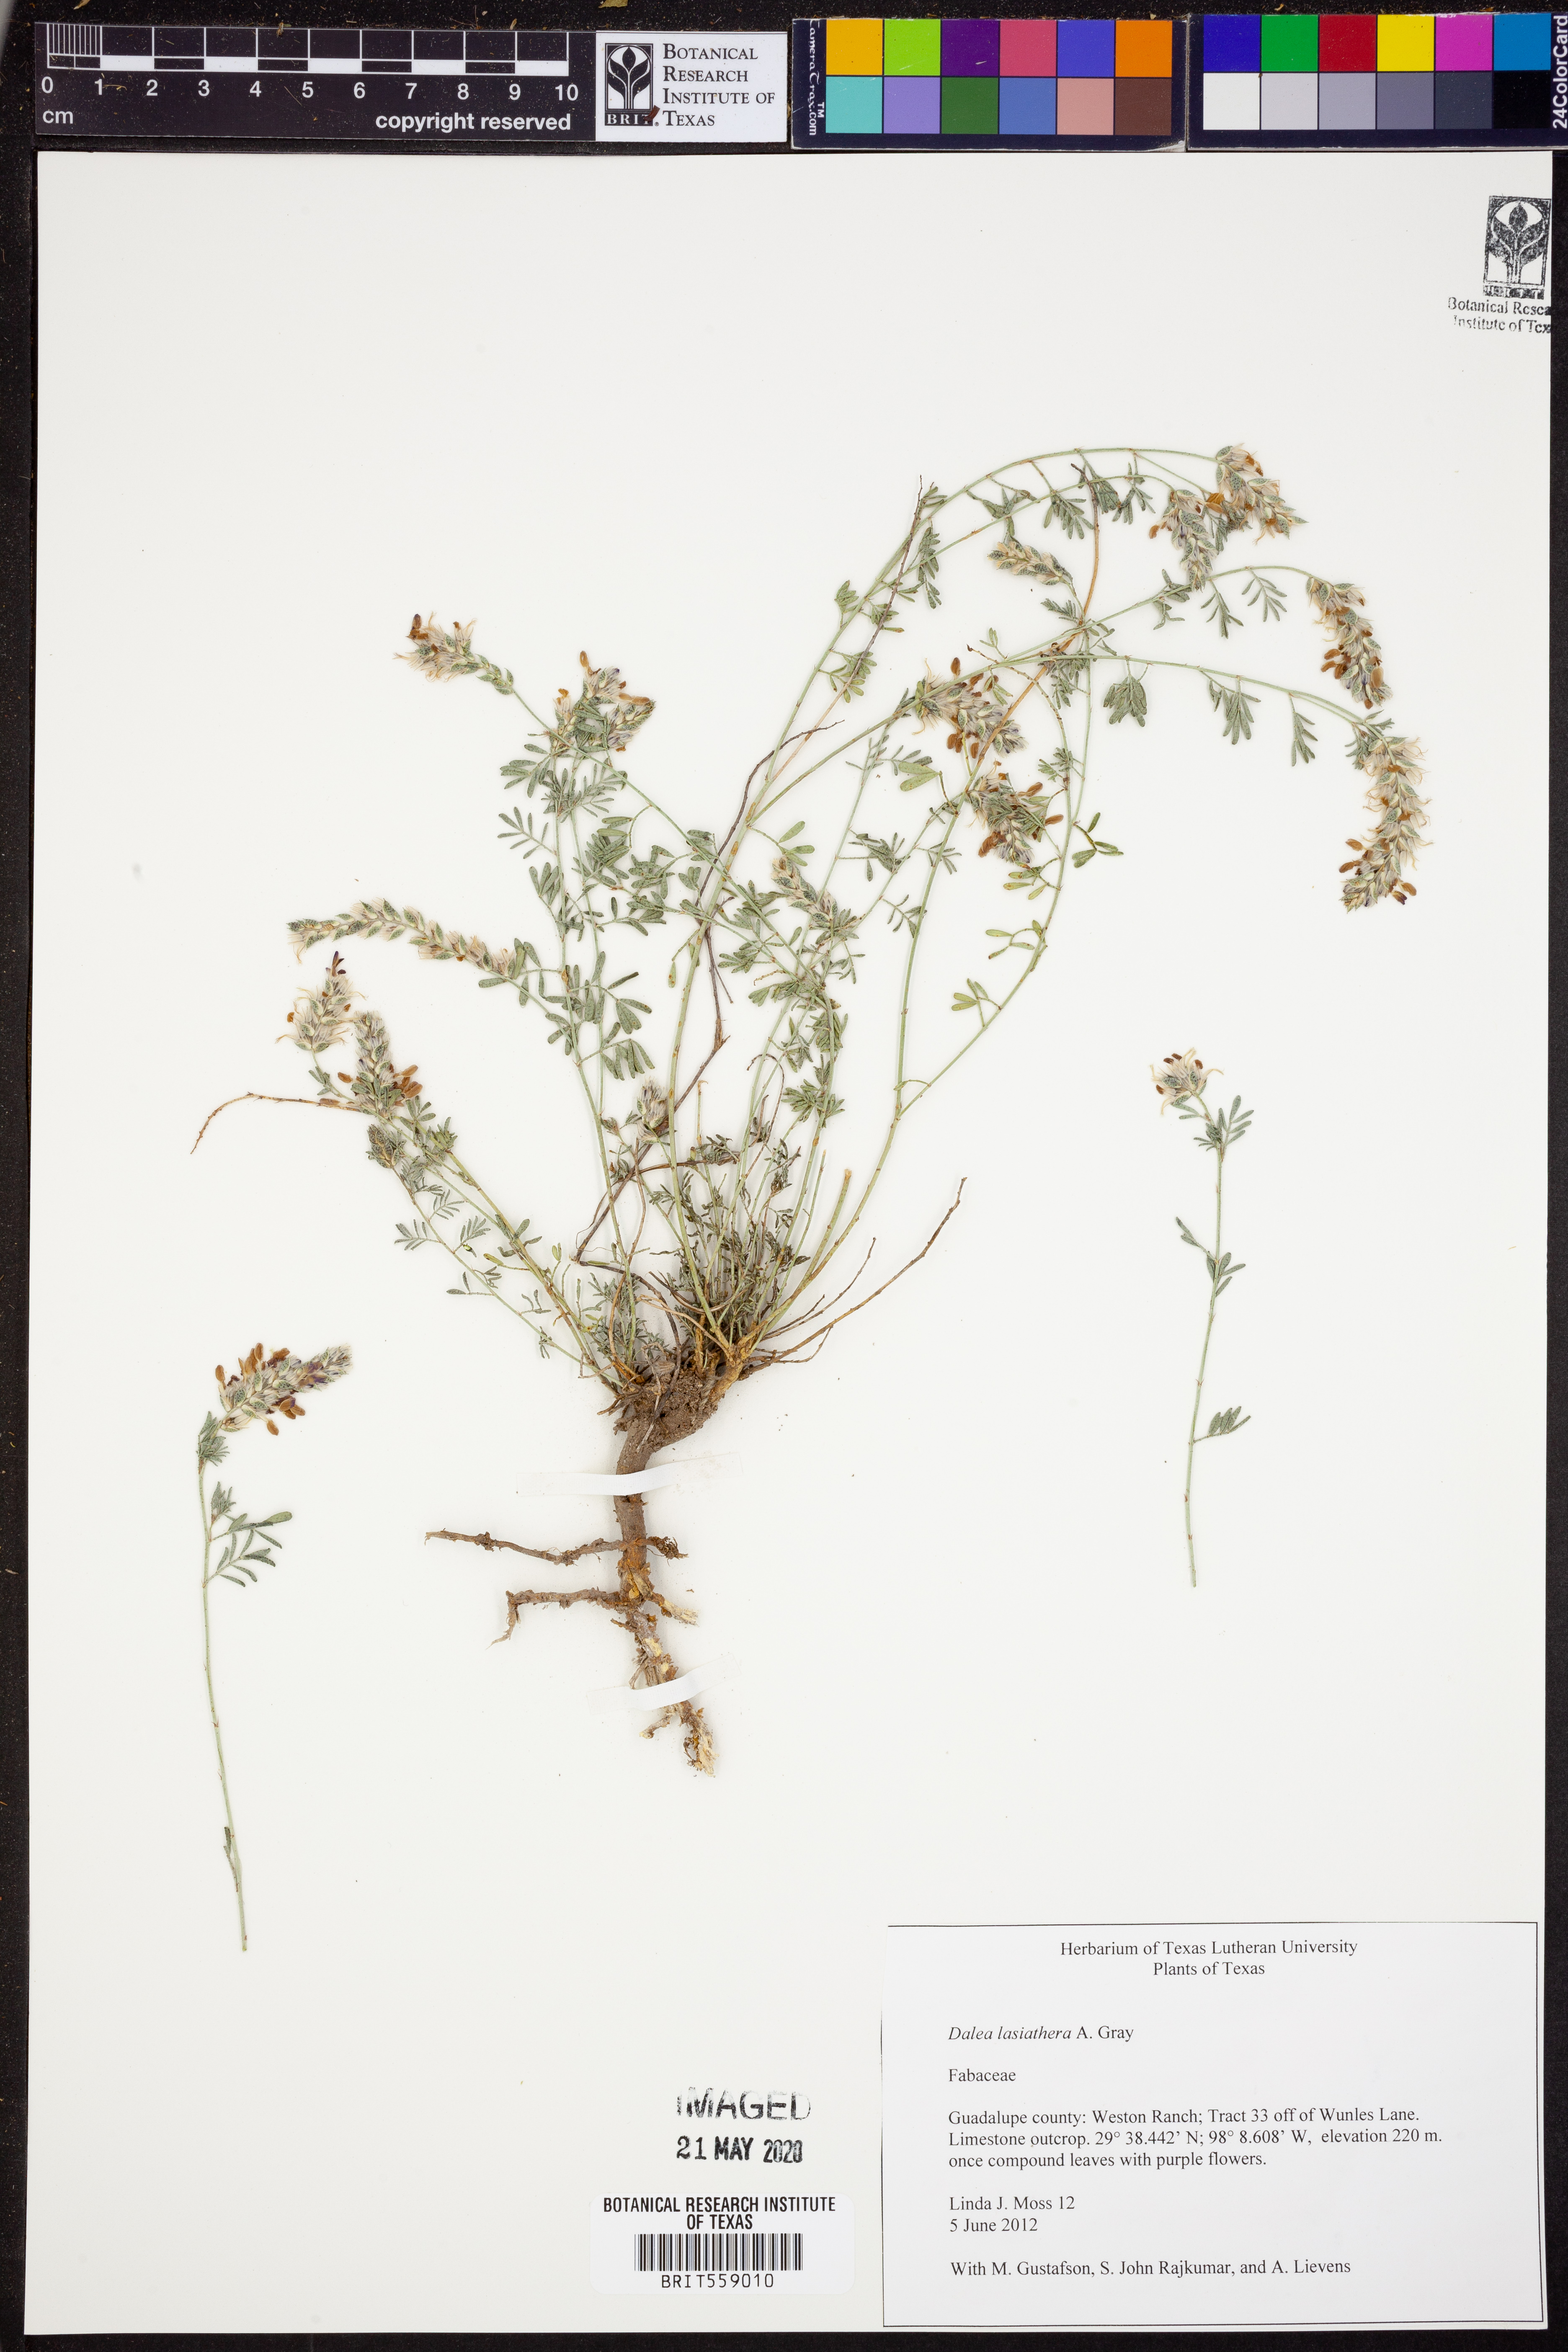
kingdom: Plantae
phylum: Tracheophyta
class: Magnoliopsida
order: Fabales
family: Fabaceae
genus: Dalea
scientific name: Dalea lasiathera
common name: Purple prairie-clover
